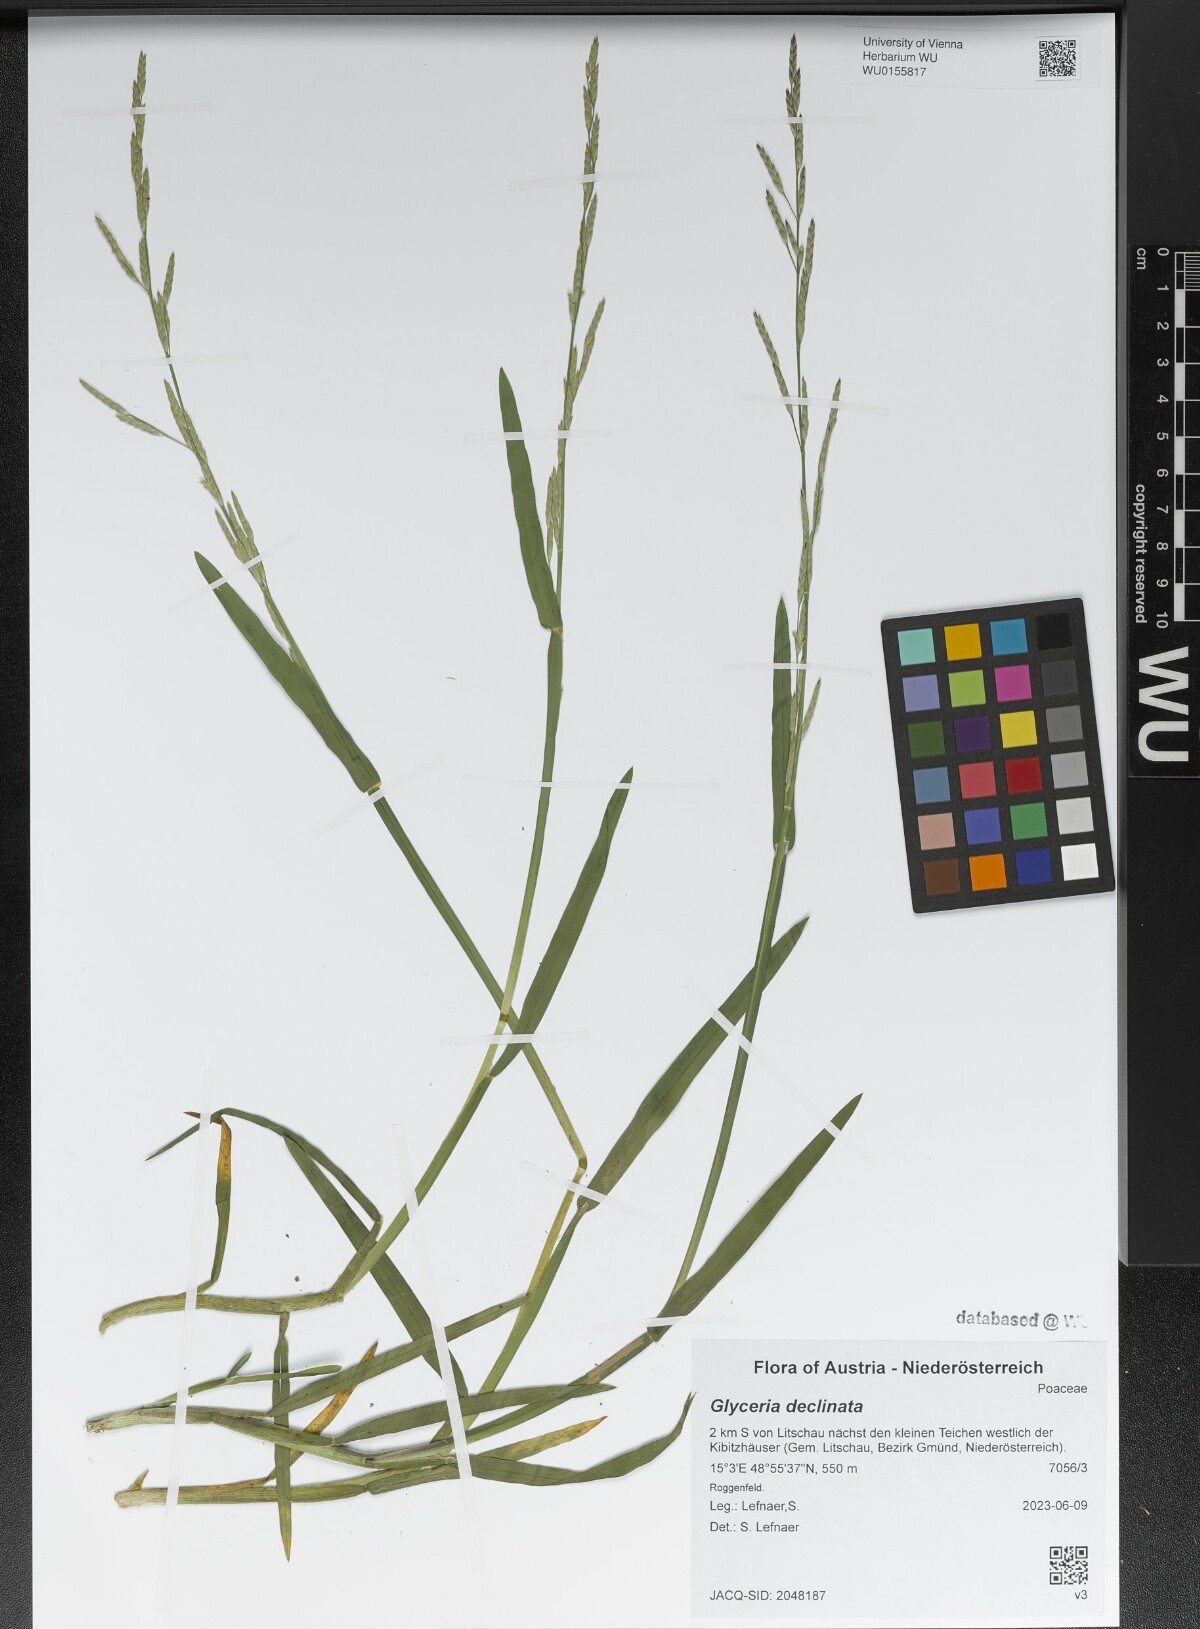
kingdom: Plantae
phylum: Tracheophyta
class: Liliopsida
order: Poales
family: Poaceae
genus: Glyceria
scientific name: Glyceria declinata
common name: Small sweet-grass
